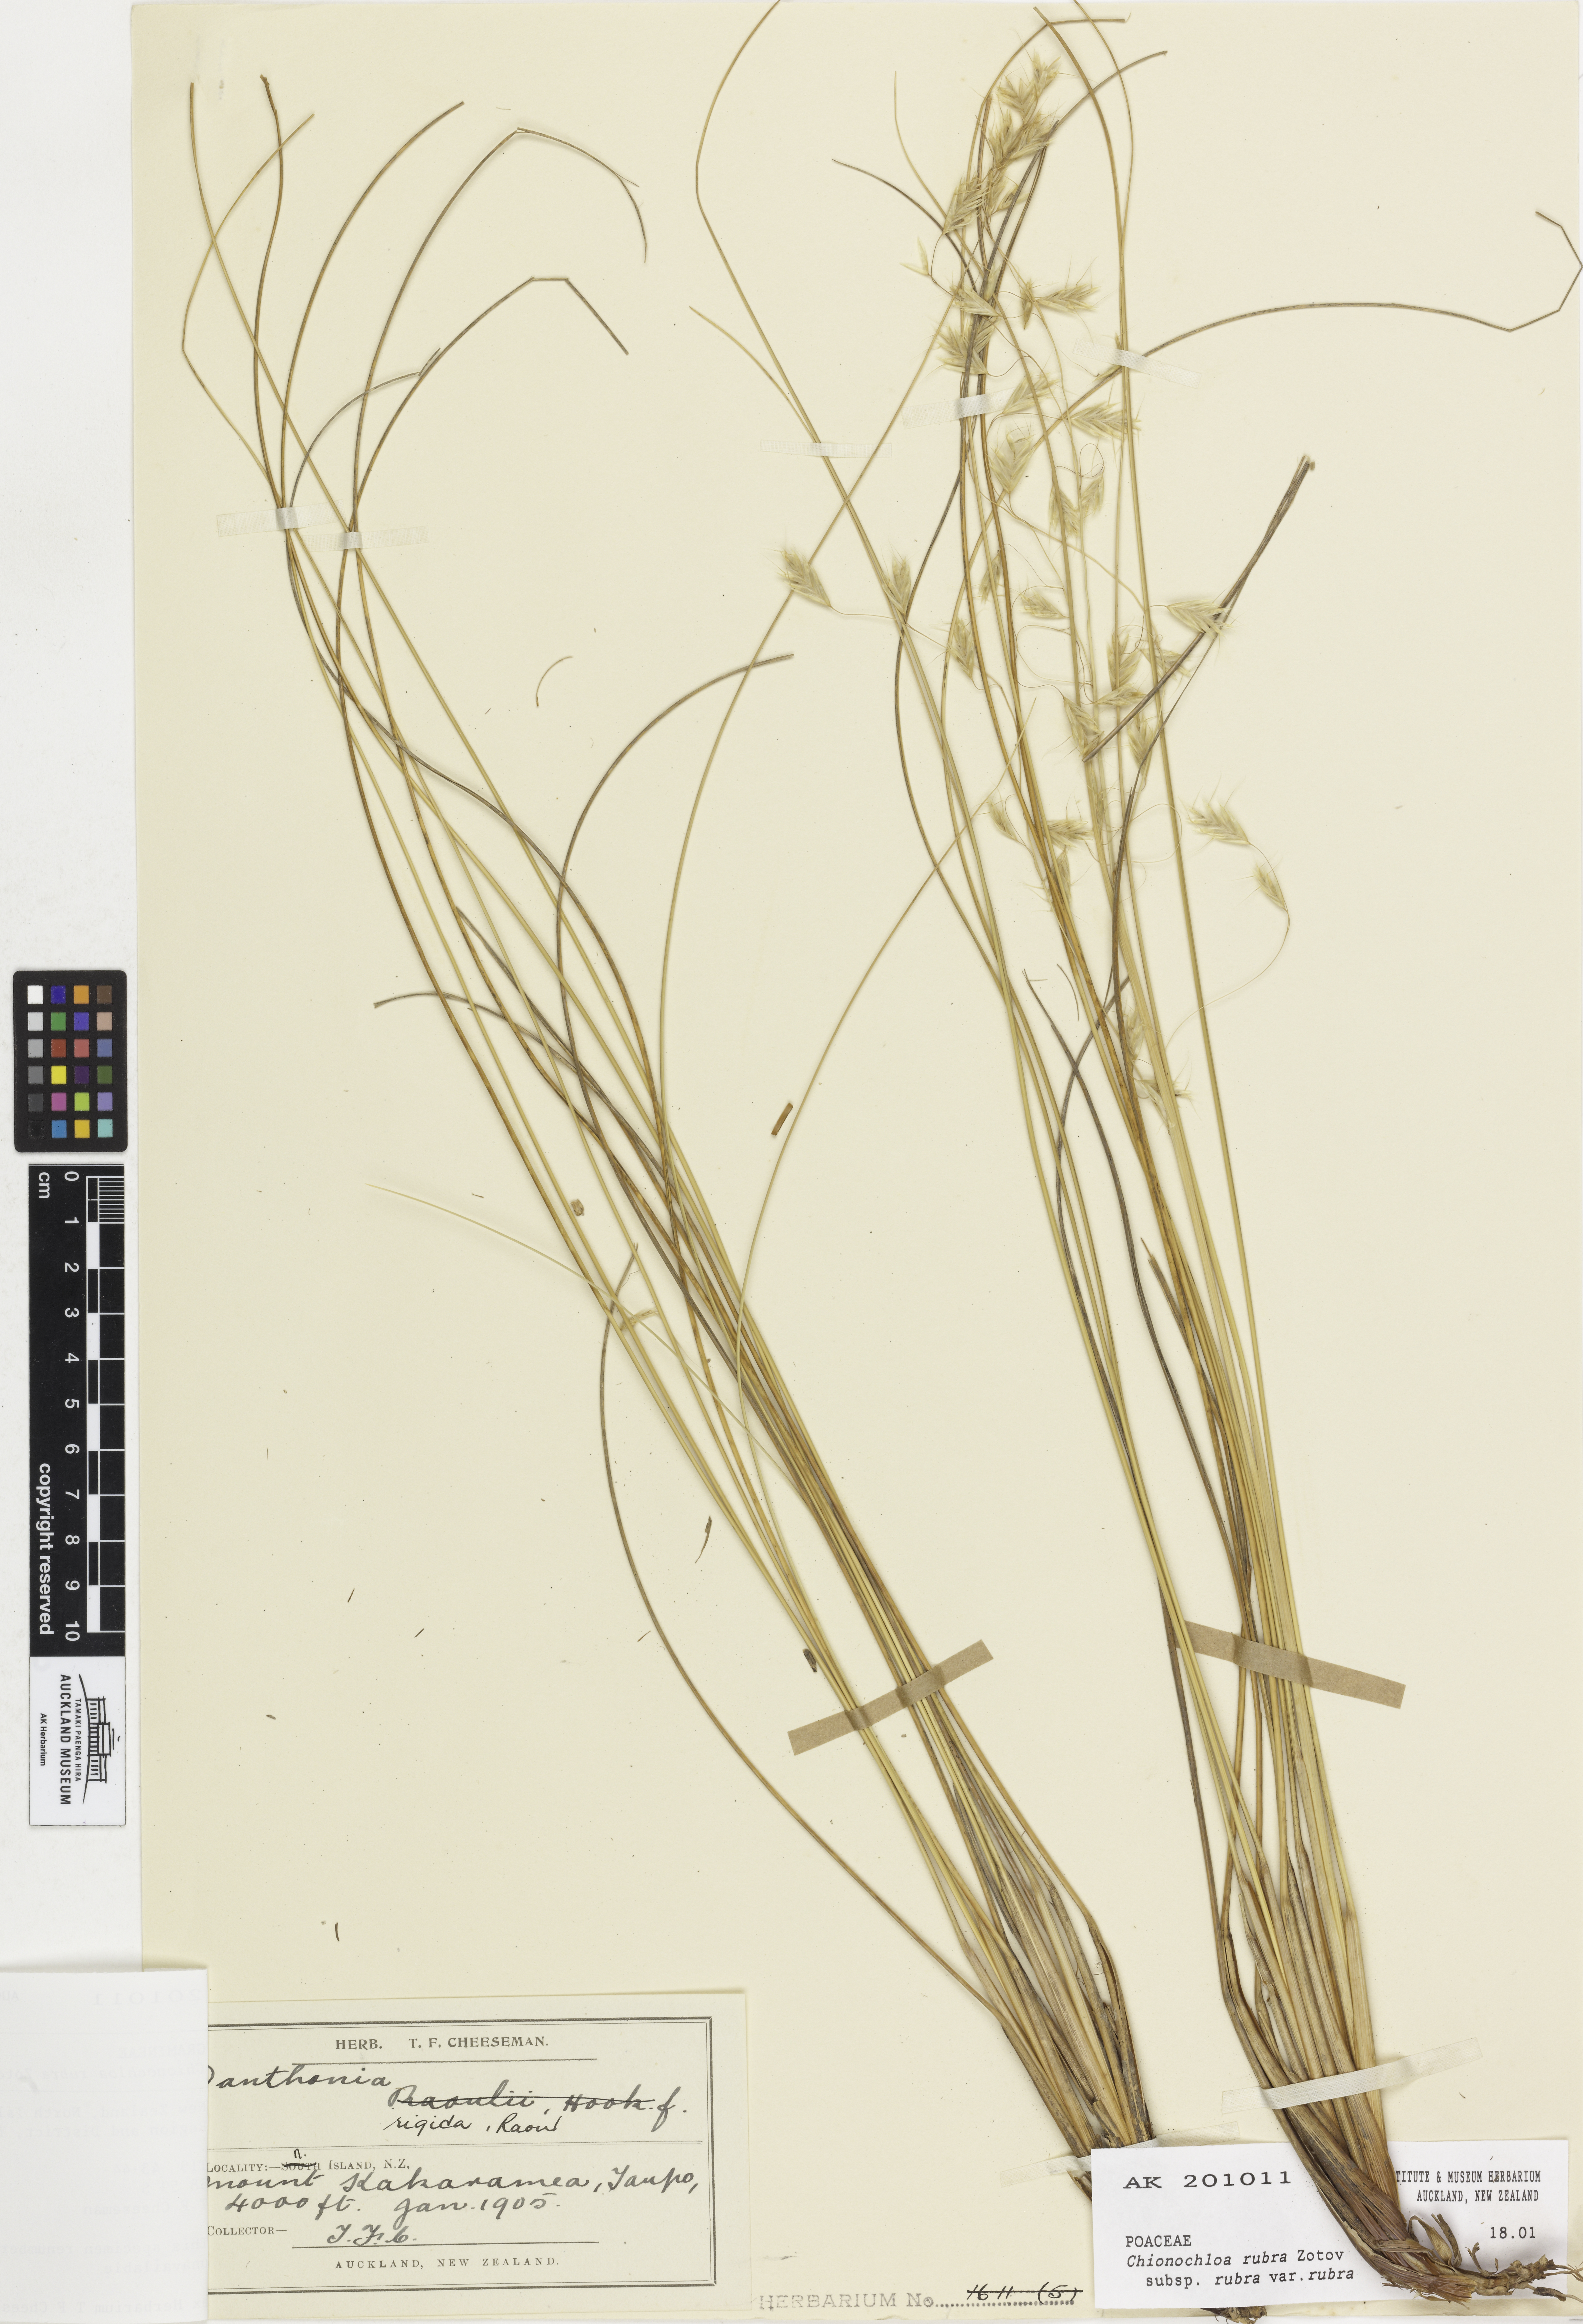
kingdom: Plantae
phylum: Tracheophyta
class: Liliopsida
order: Poales
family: Poaceae
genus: Chionochloa
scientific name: Chionochloa rubra
